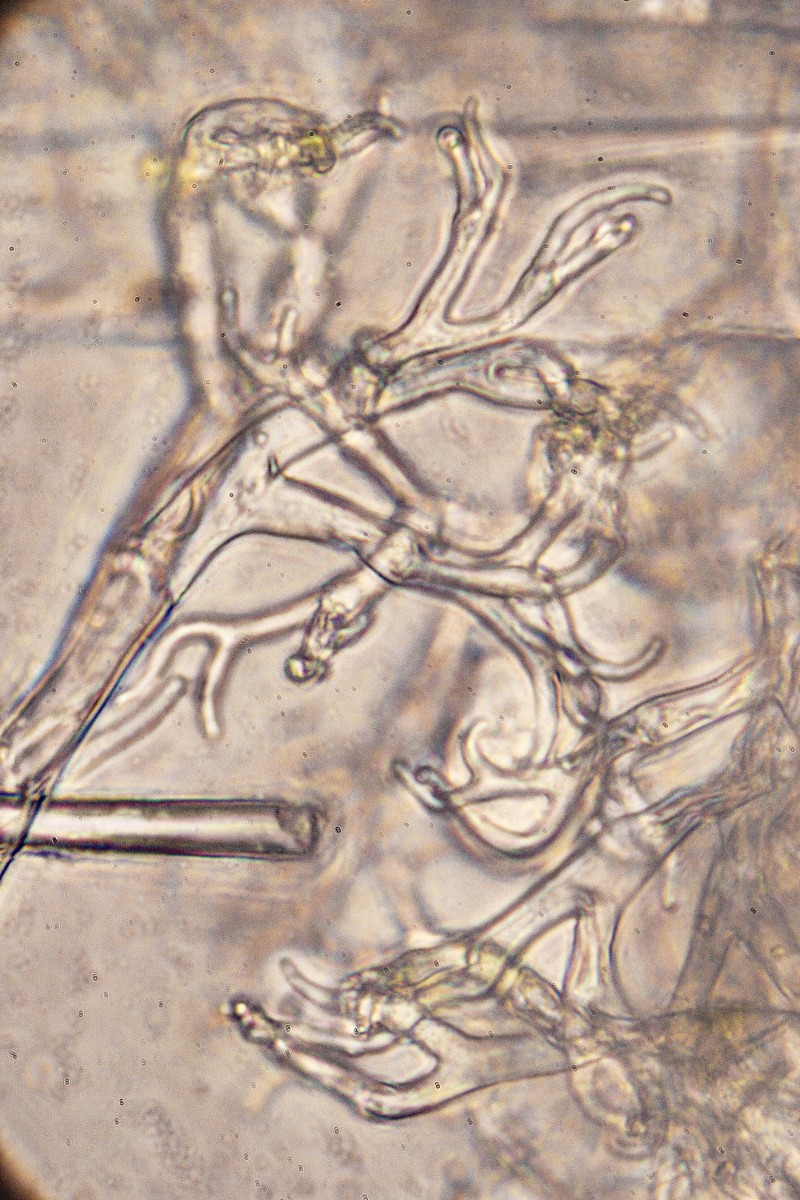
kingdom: Chromista
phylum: Oomycota
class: Peronosporea
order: Peronosporales
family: Peronosporaceae
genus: Hyaloperonospora
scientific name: Hyaloperonospora brassicae
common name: Brassica downy mildew
